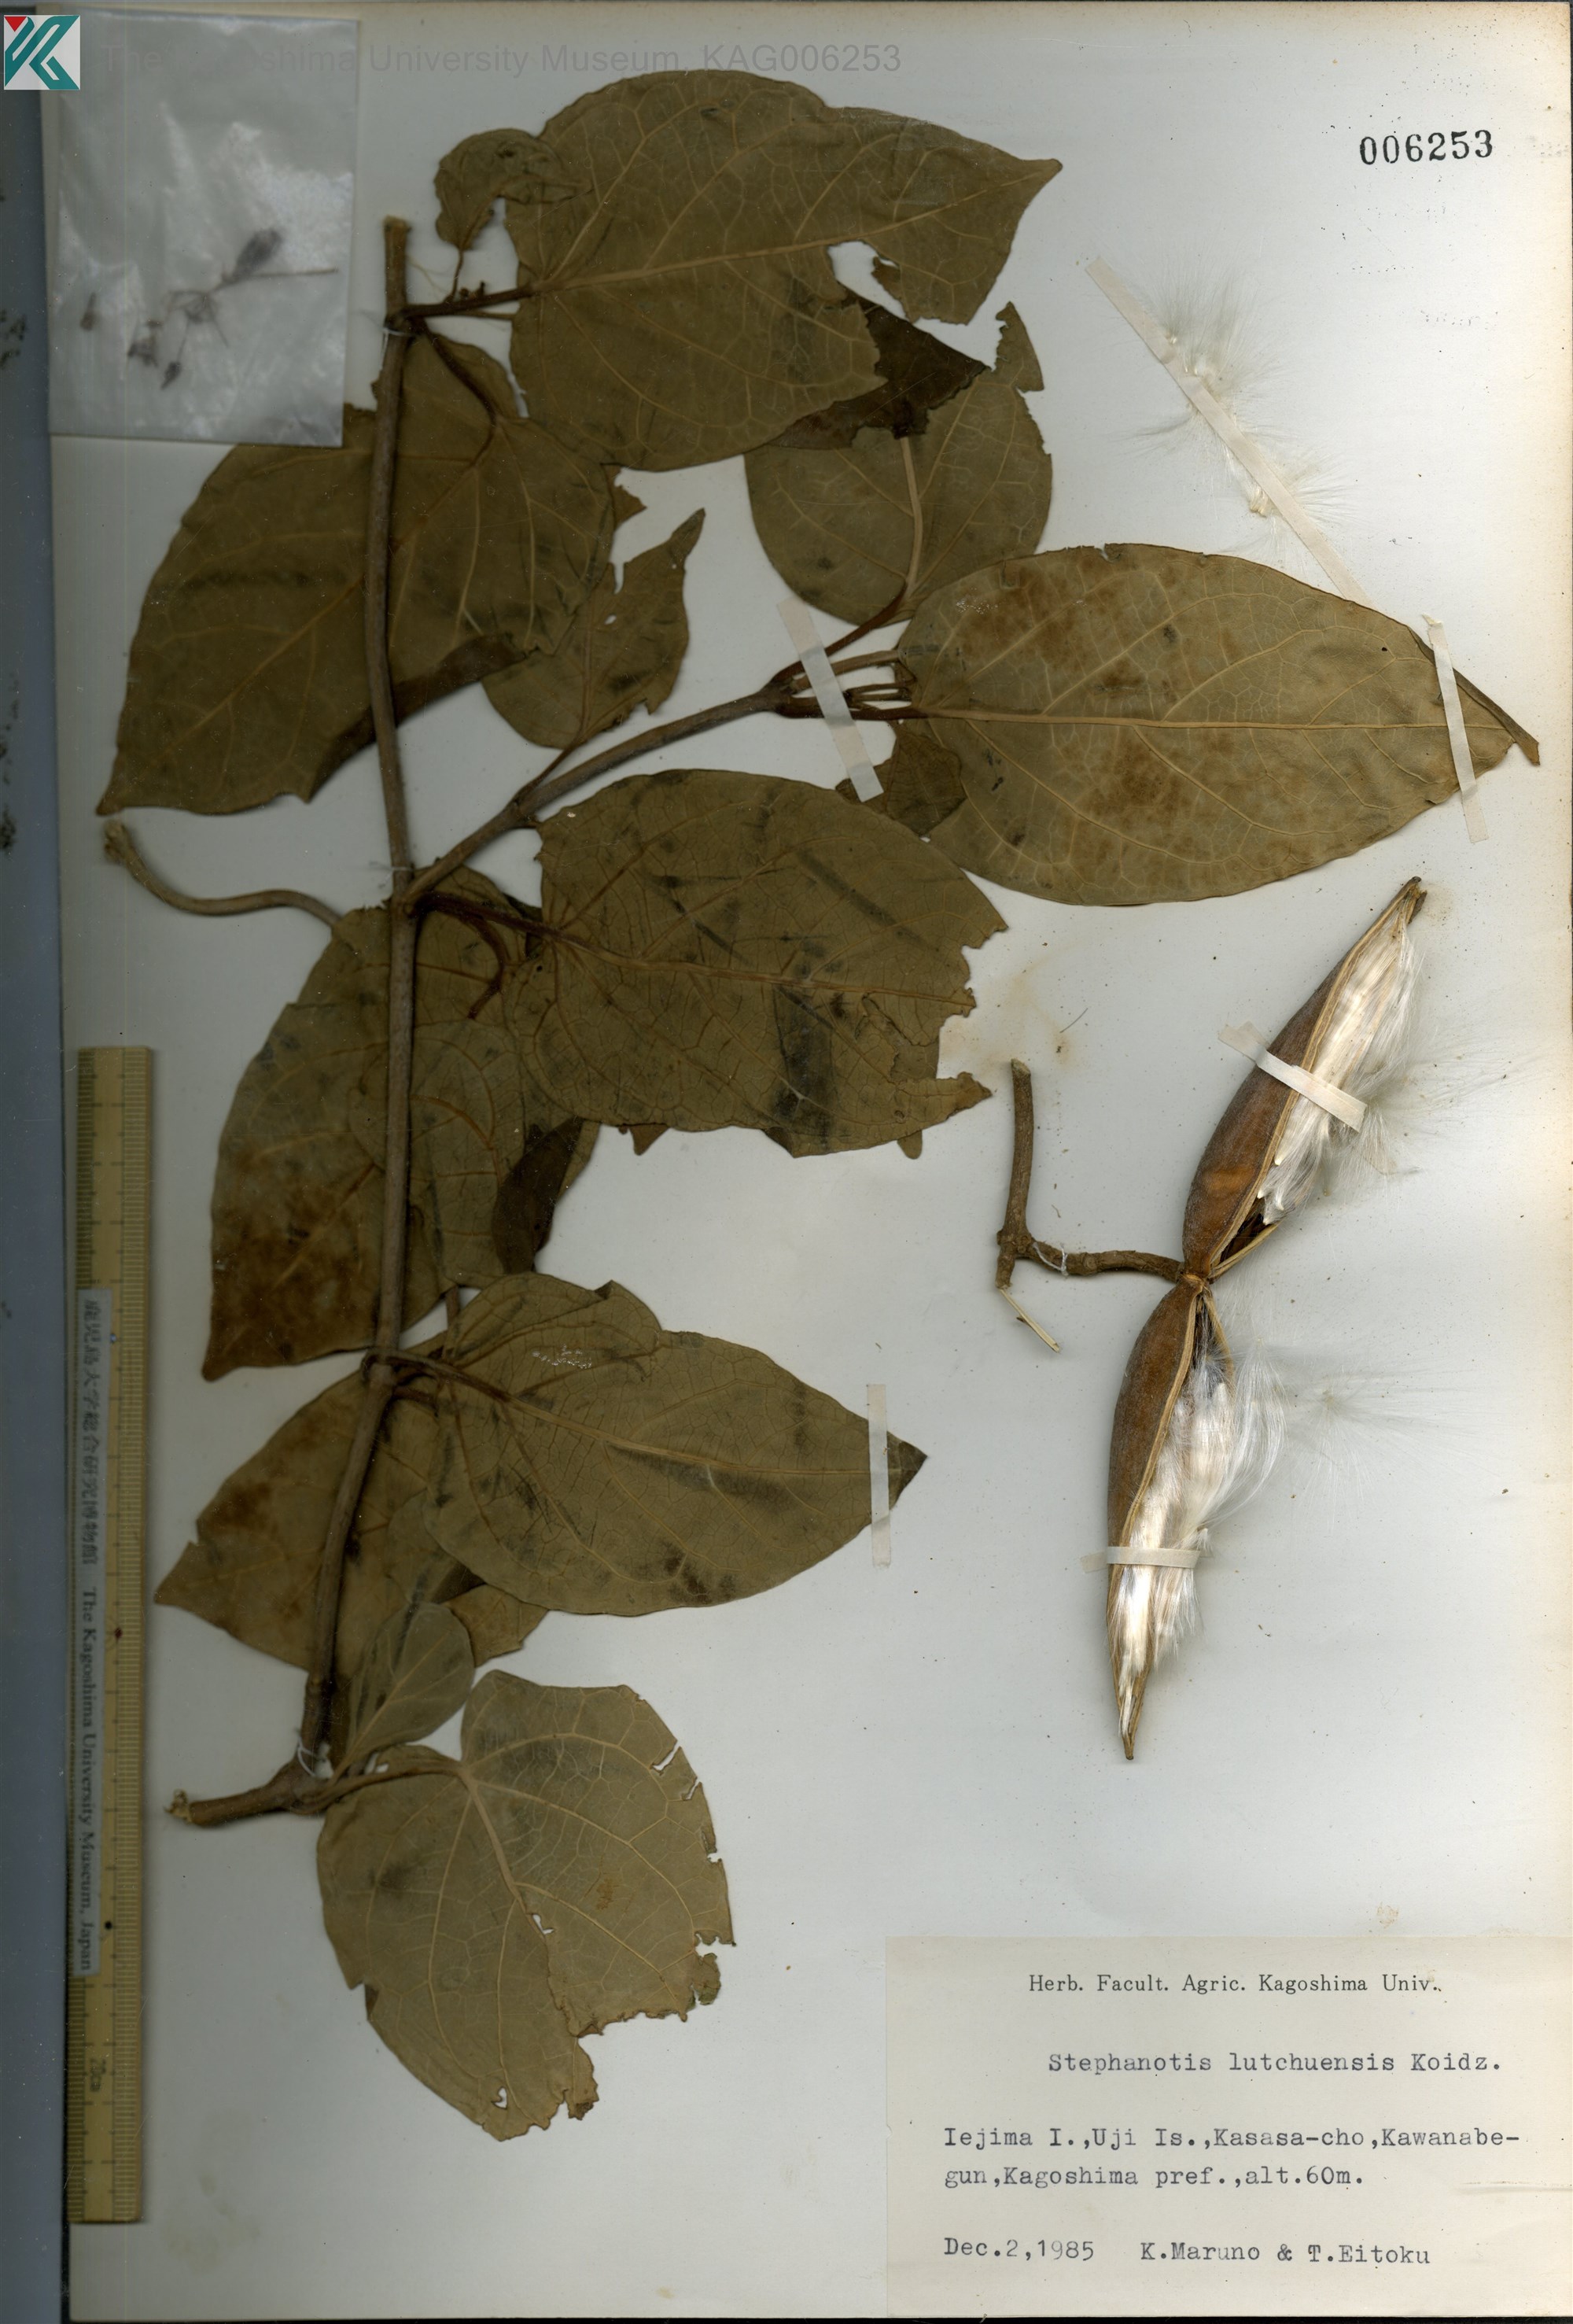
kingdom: Plantae
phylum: Tracheophyta
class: Magnoliopsida
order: Gentianales
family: Apocynaceae
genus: Jasminanthes
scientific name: Jasminanthes mucronata
